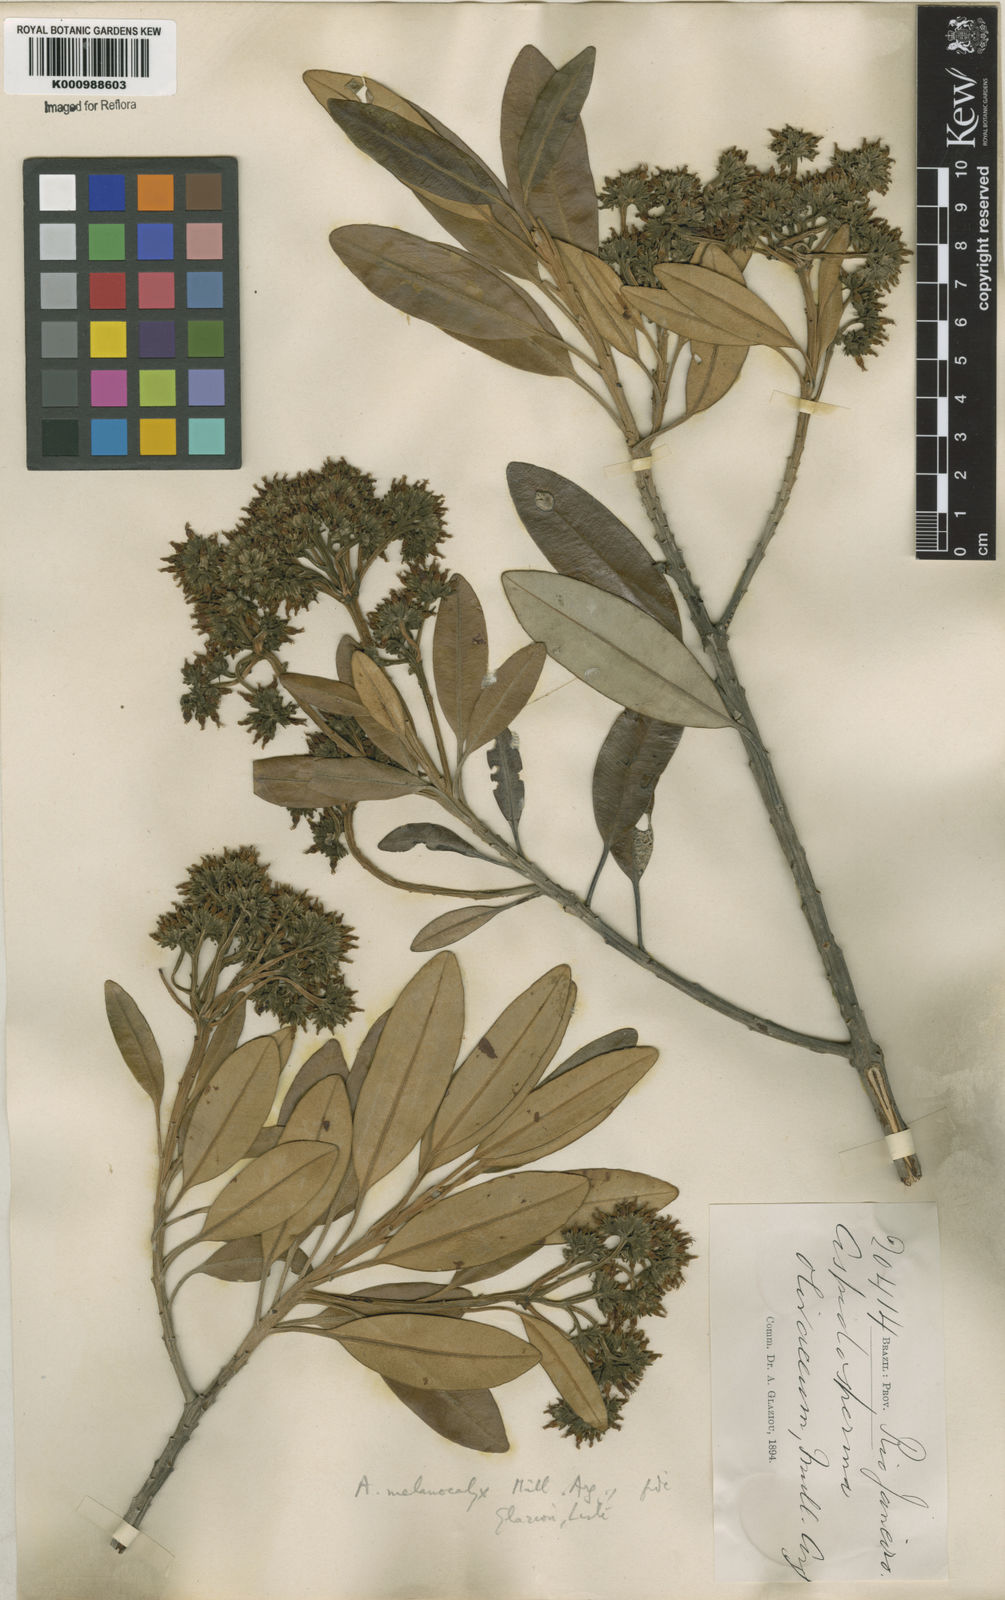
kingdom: Plantae
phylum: Tracheophyta
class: Magnoliopsida
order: Gentianales
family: Apocynaceae
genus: Aspidosperma
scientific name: Aspidosperma
